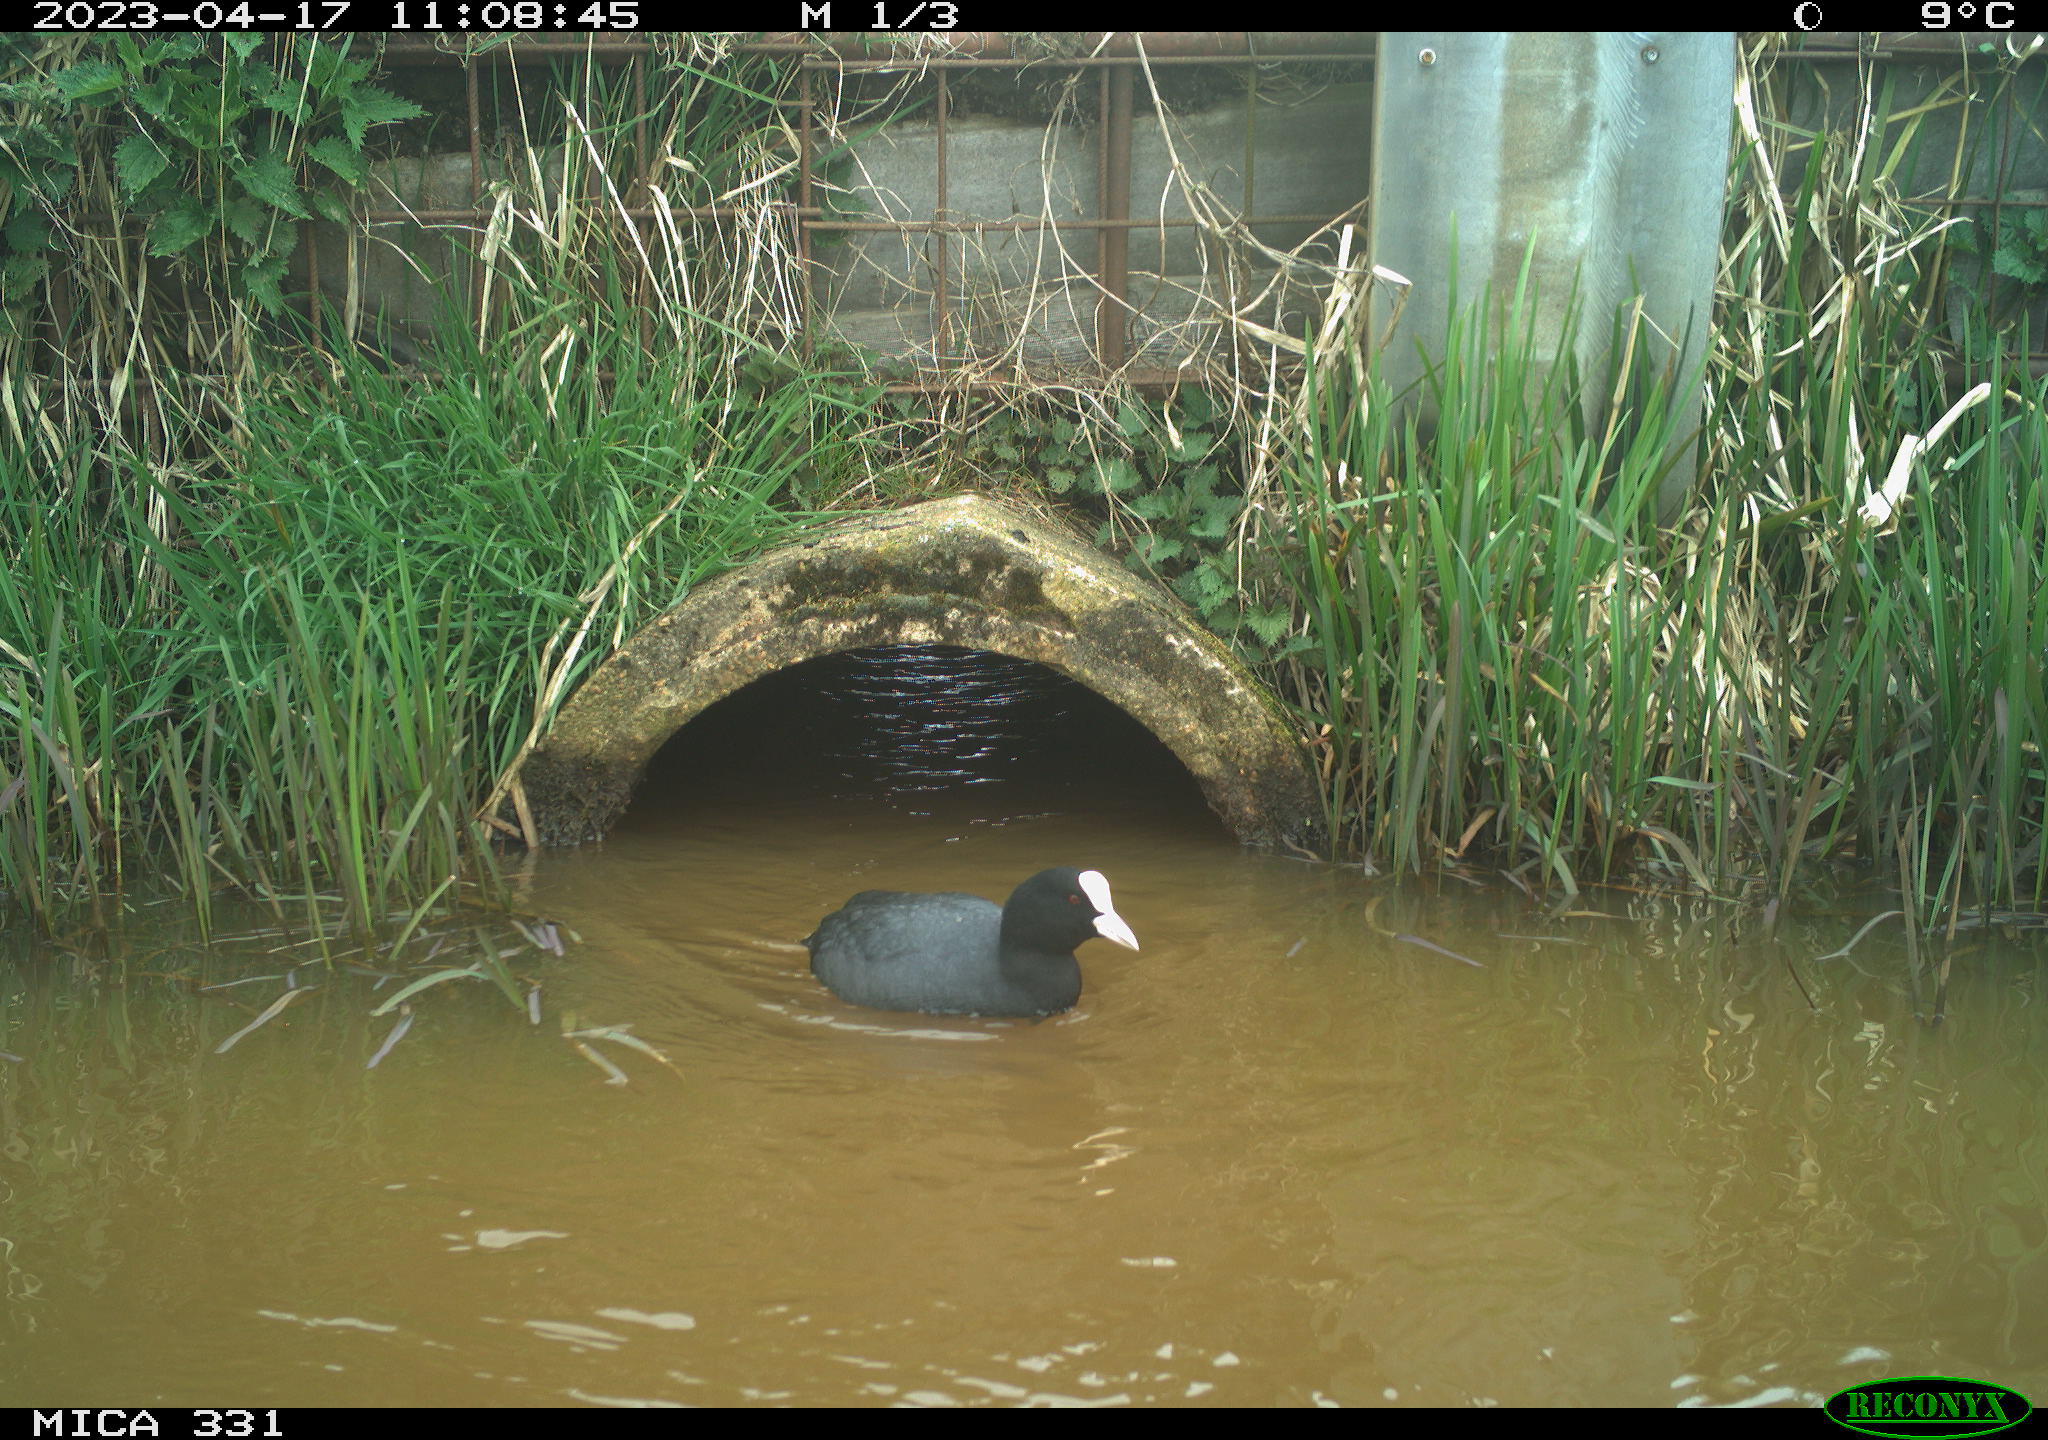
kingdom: Animalia
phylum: Chordata
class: Aves
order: Gruiformes
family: Rallidae
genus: Fulica
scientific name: Fulica atra
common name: Eurasian coot
